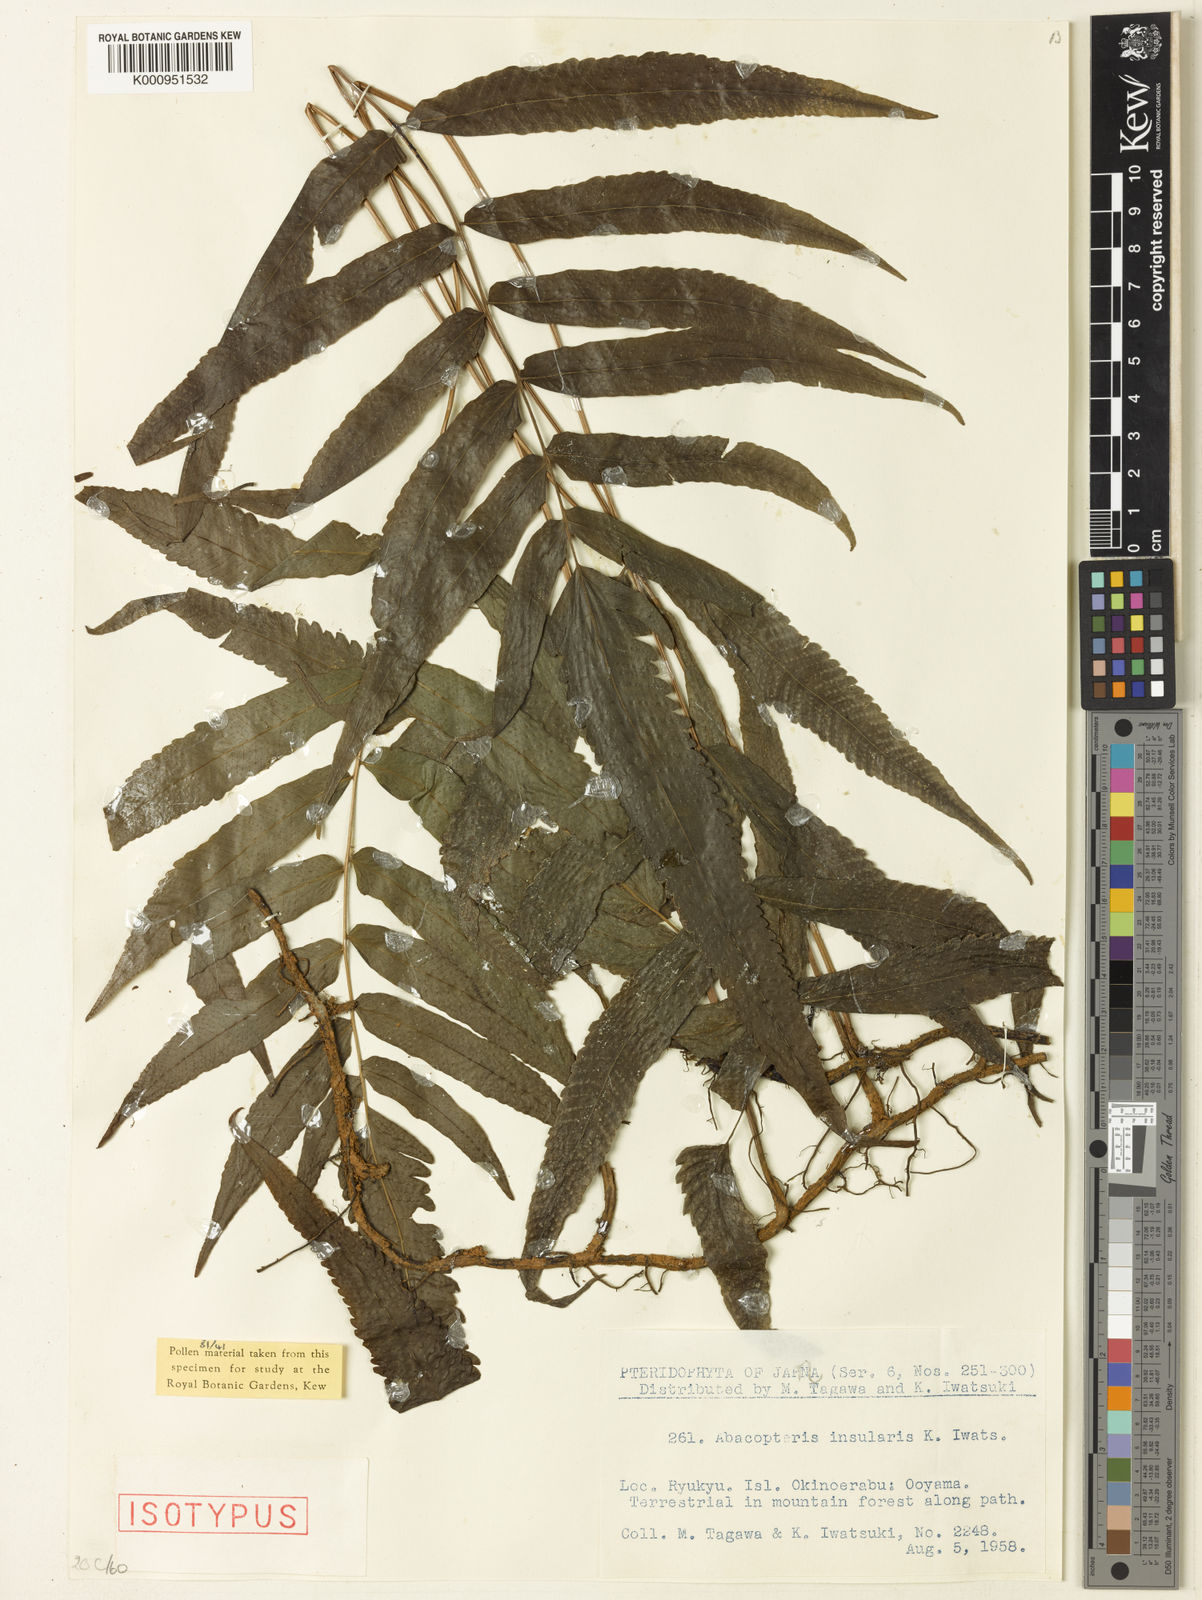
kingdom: Plantae
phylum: Tracheophyta
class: Polypodiopsida
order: Polypodiales
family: Thelypteridaceae
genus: Chrinephrium
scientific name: Chrinephrium thwaitesii
